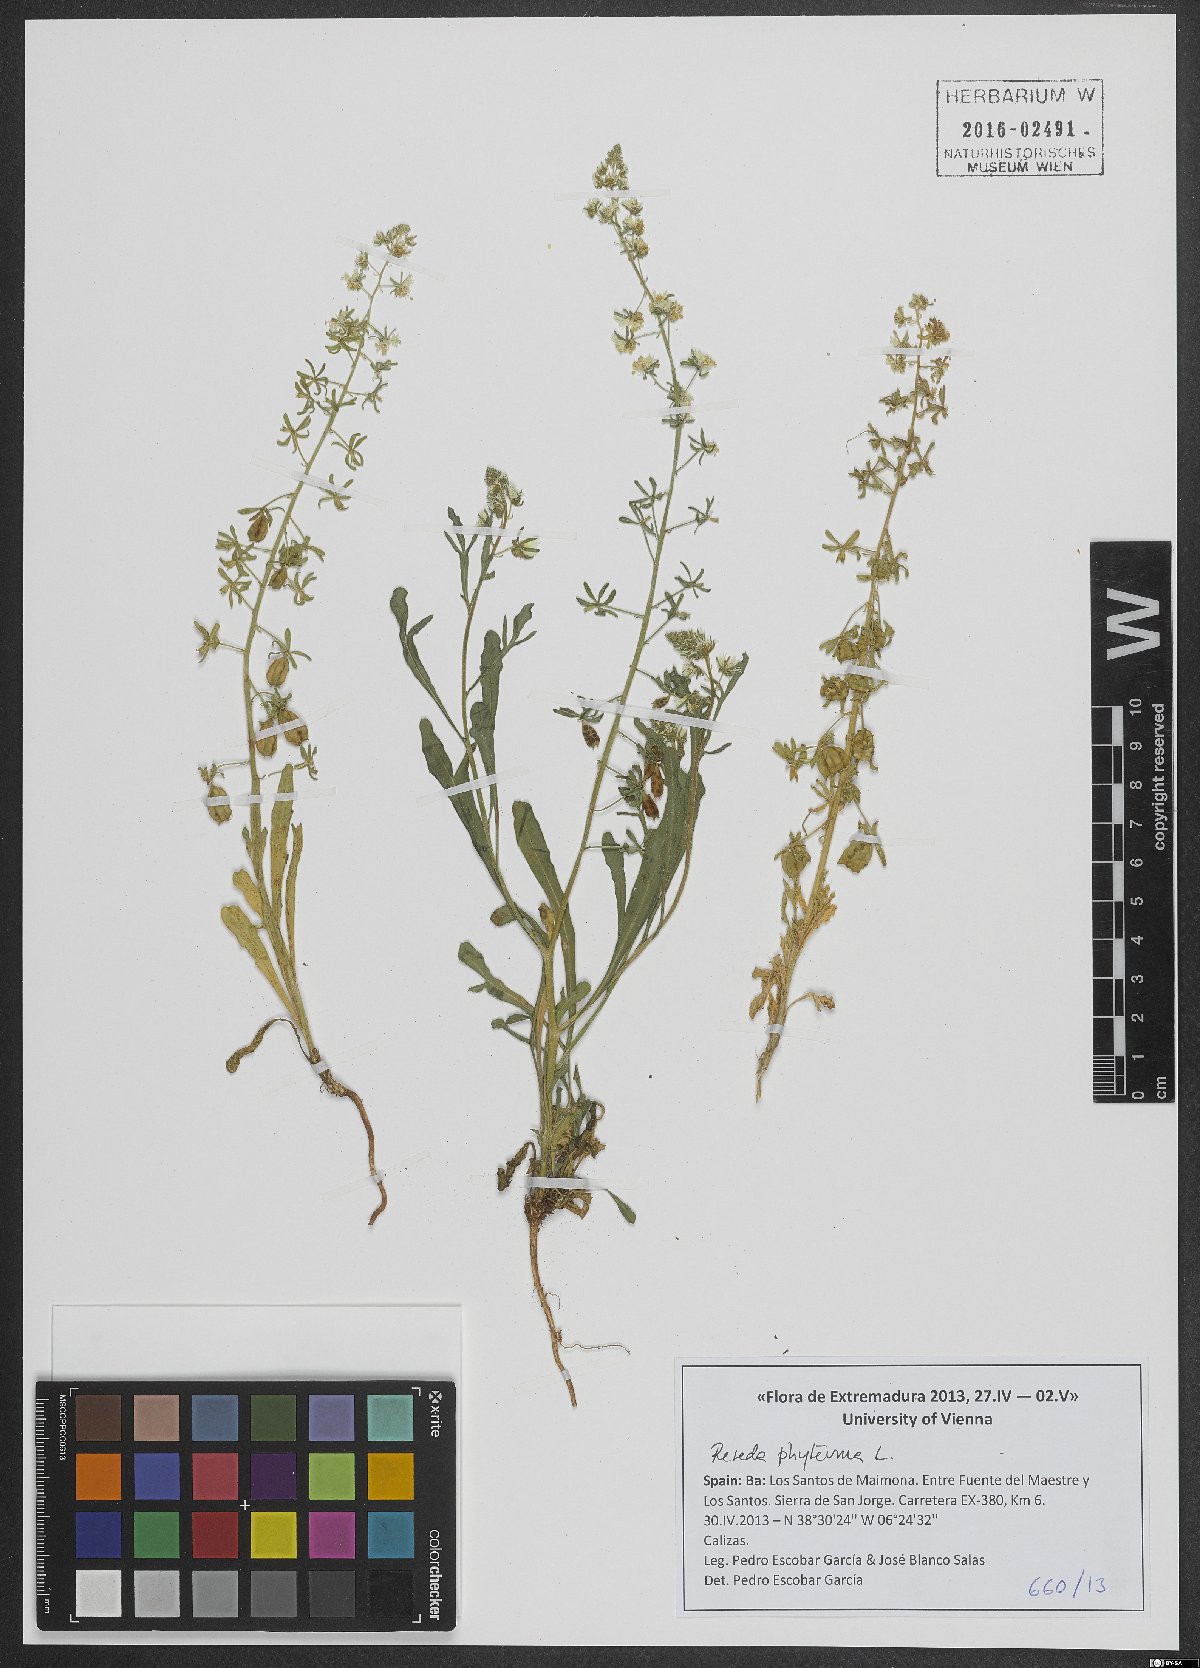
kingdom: Plantae
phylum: Tracheophyta
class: Magnoliopsida
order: Brassicales
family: Resedaceae
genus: Reseda
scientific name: Reseda phyteuma
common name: Corn mignonette
